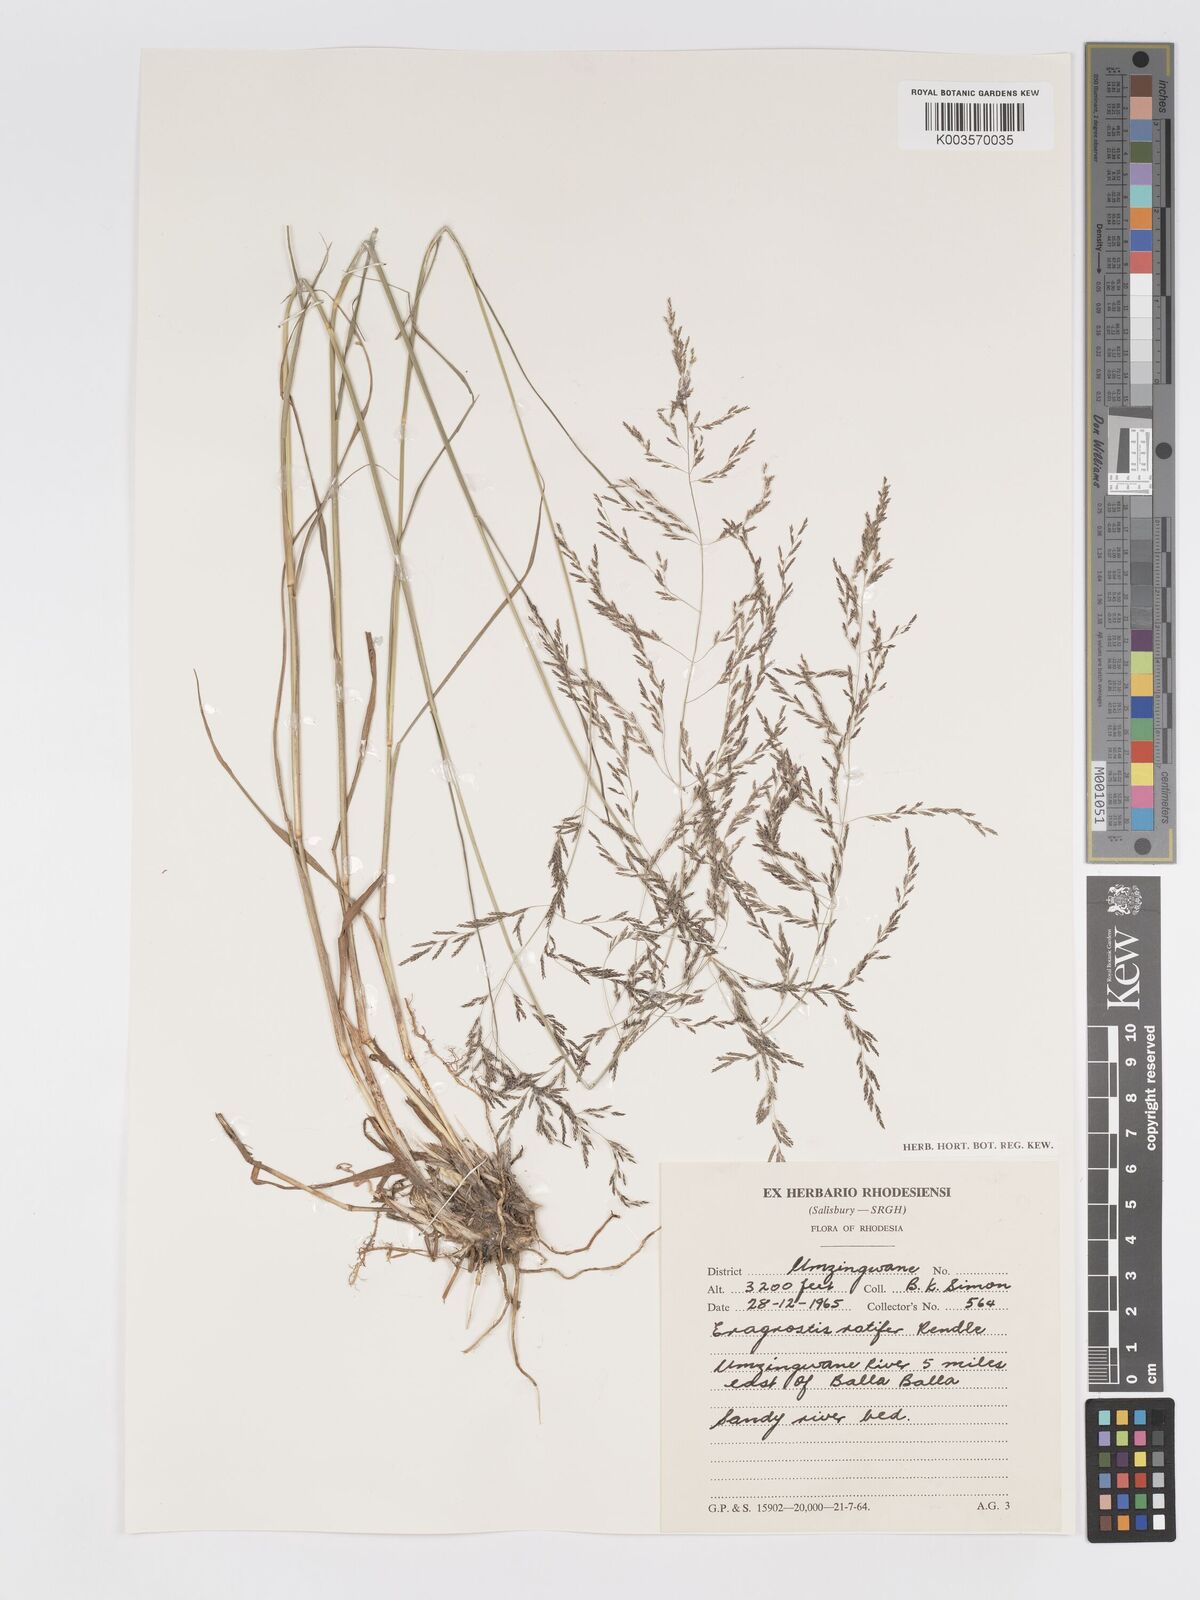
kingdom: Plantae
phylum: Tracheophyta
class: Liliopsida
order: Poales
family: Poaceae
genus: Eragrostis
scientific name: Eragrostis rotifer
